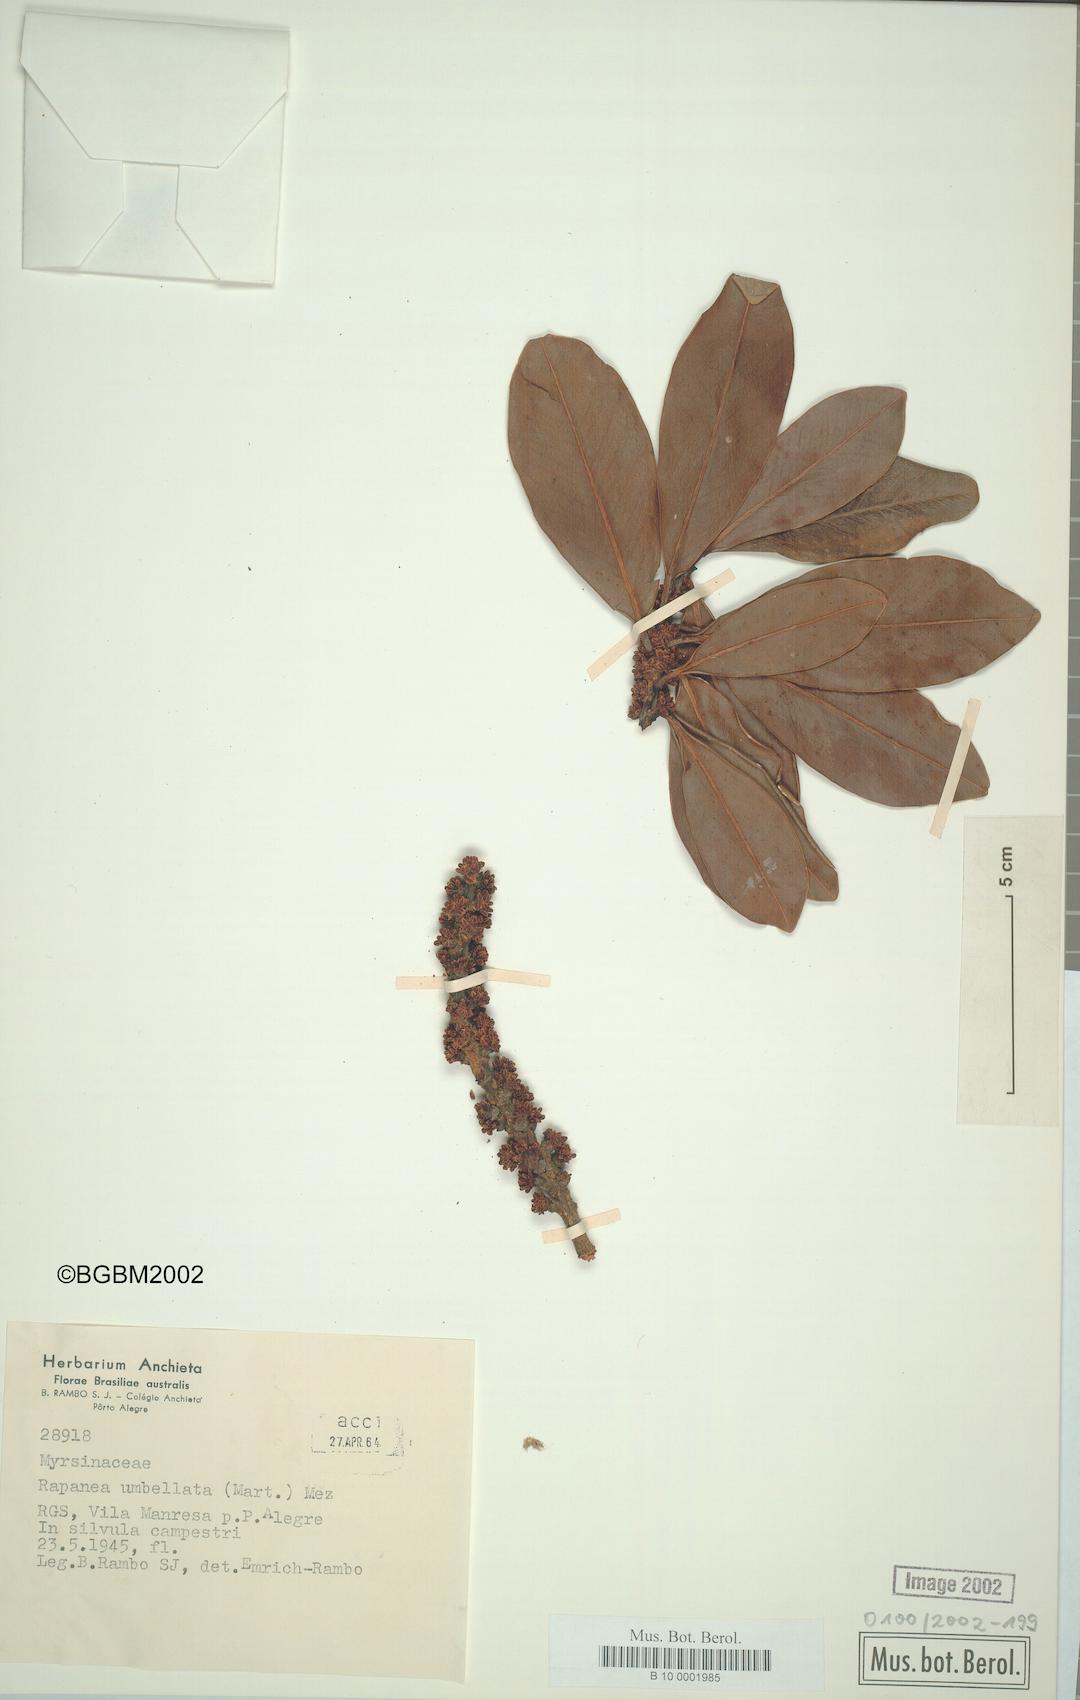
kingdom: Plantae
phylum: Tracheophyta
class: Magnoliopsida
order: Ericales
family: Primulaceae
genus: Myrsine
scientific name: Myrsine umbellata
